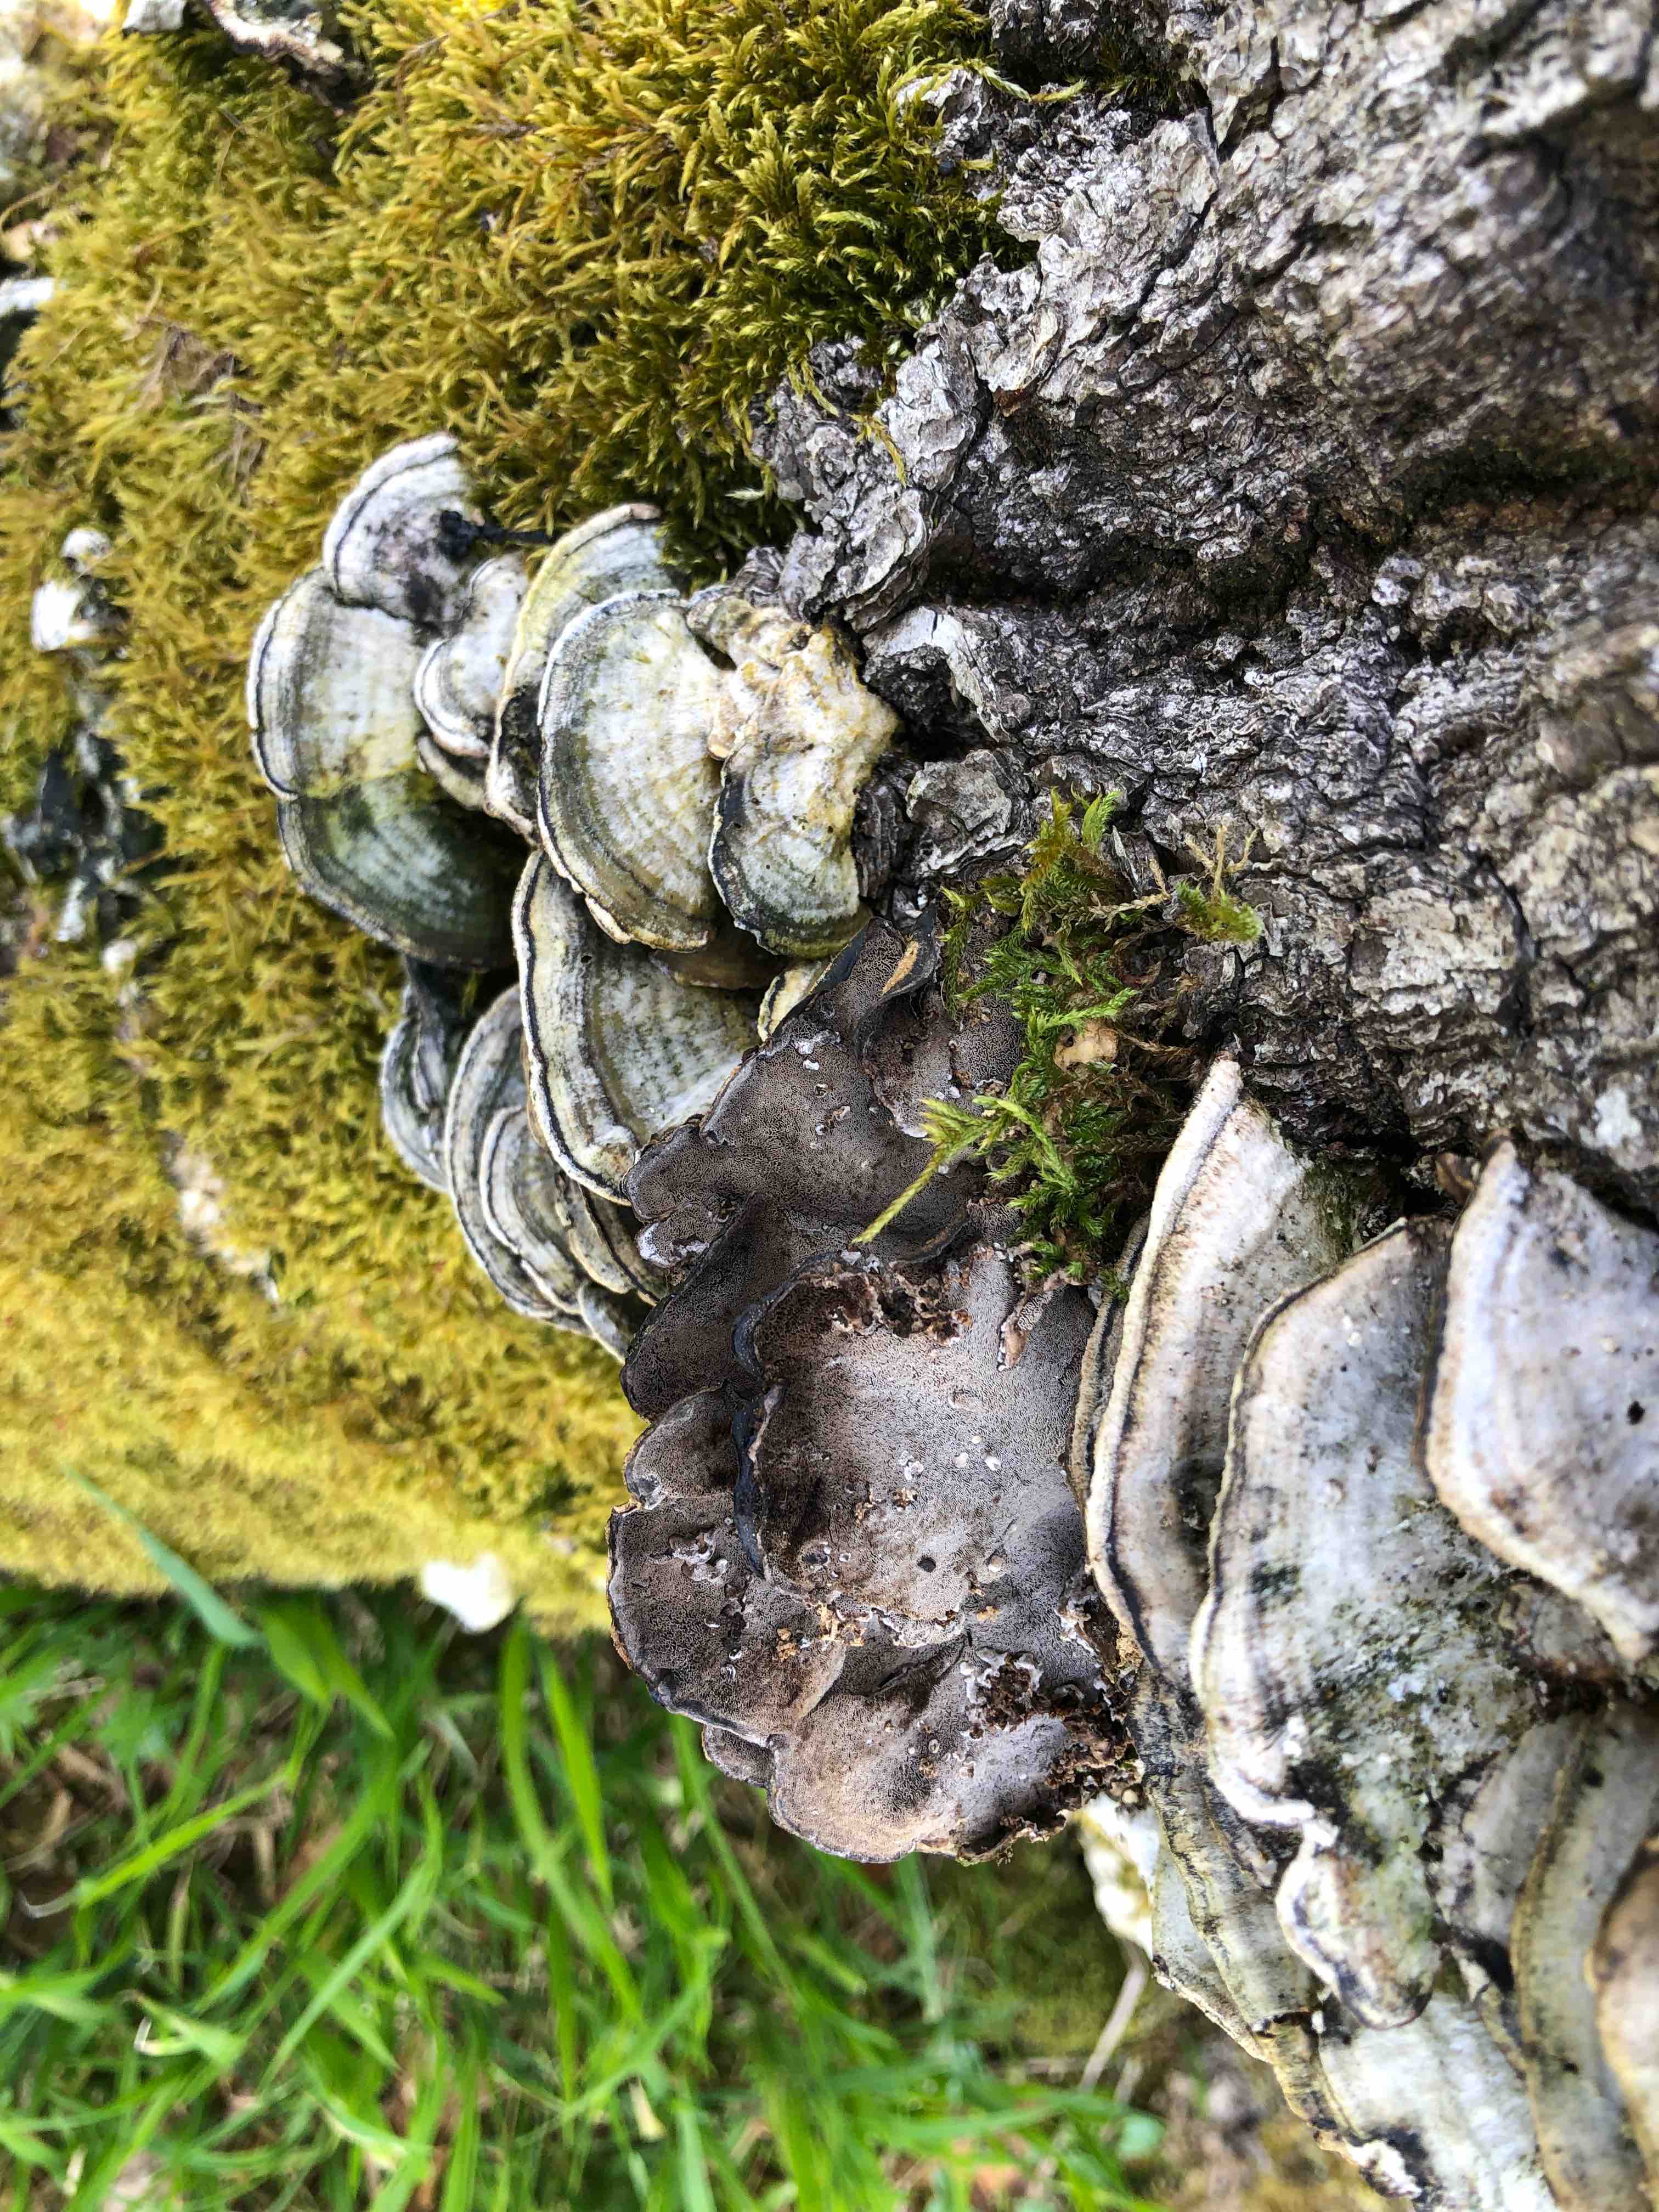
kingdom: Fungi
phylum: Basidiomycota
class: Agaricomycetes
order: Polyporales
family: Phanerochaetaceae
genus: Bjerkandera
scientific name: Bjerkandera adusta
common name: sveden sodporesvamp
